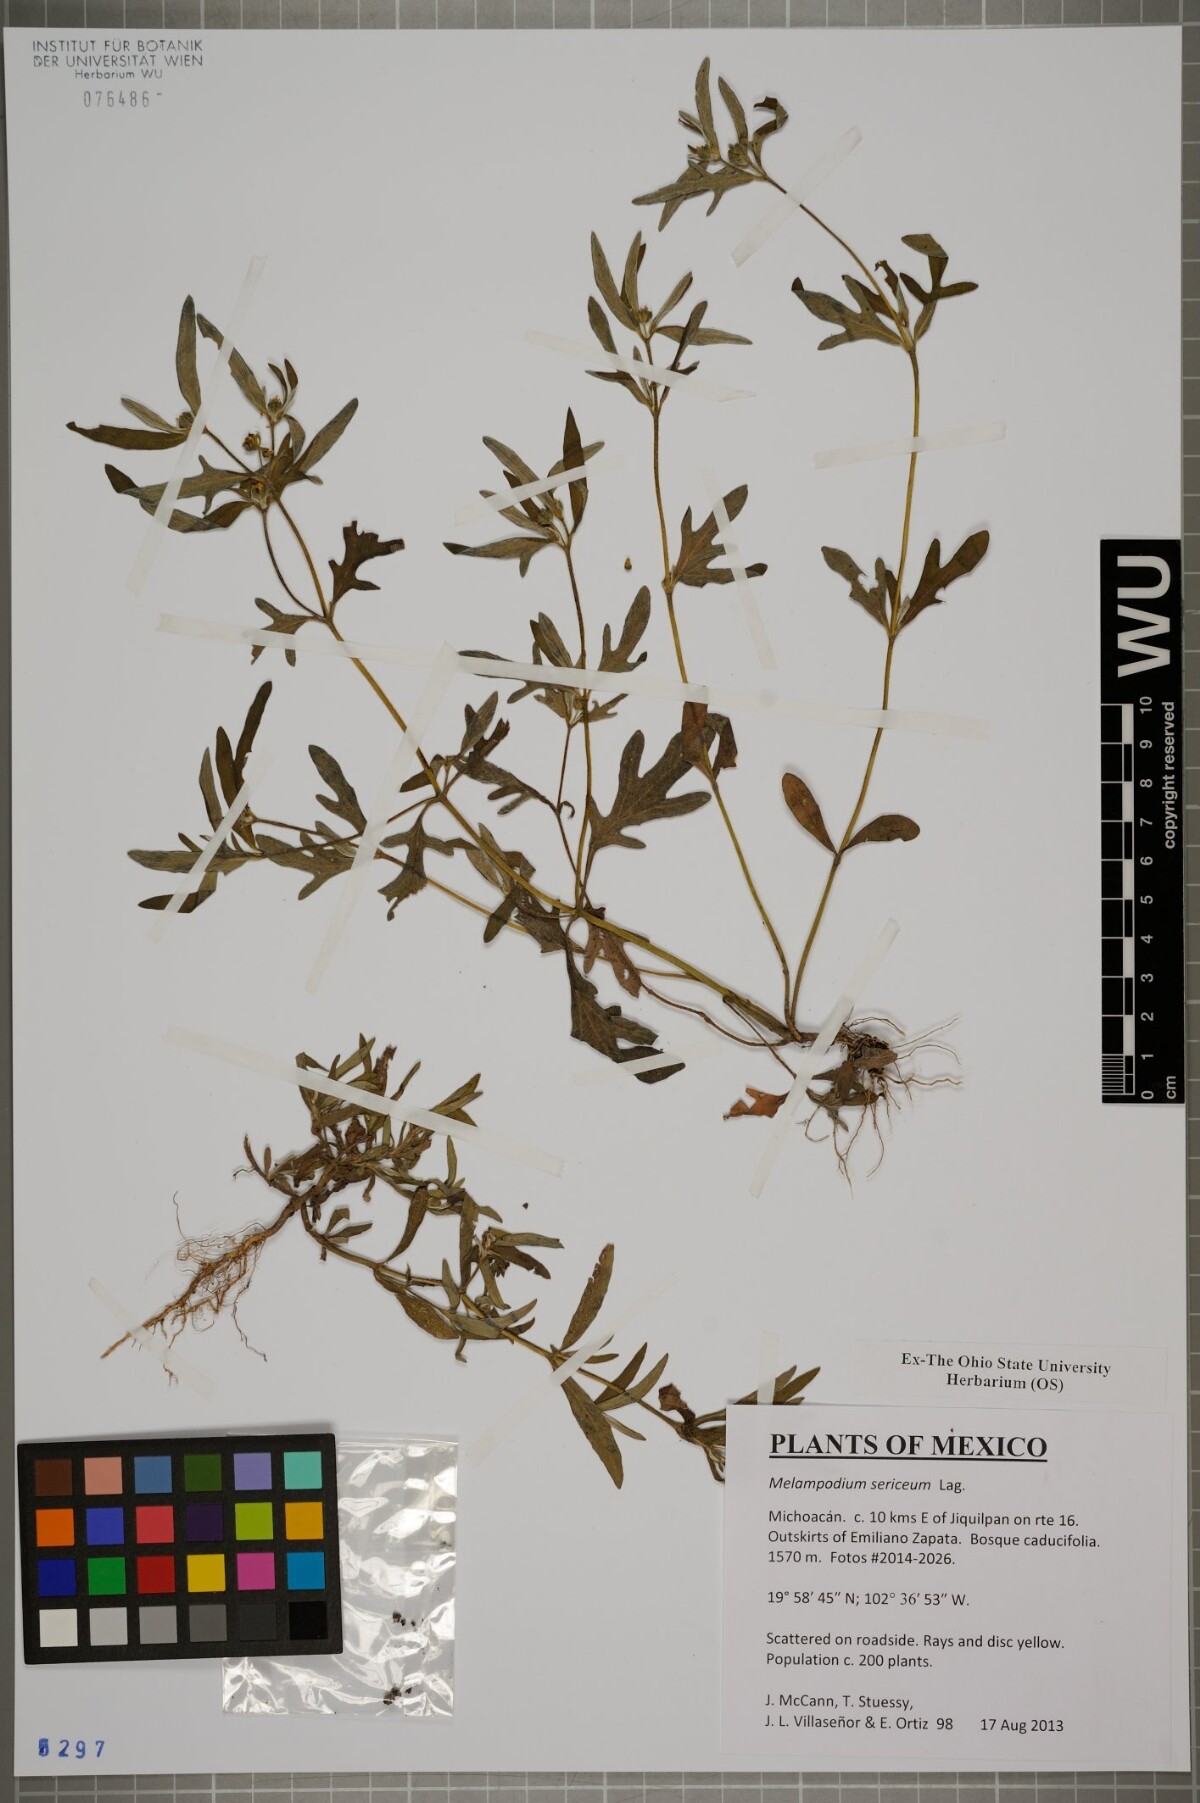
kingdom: Plantae
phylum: Tracheophyta
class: Magnoliopsida
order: Asterales
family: Asteraceae
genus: Melampodium
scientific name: Melampodium sericeum
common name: Rough blackfoot
